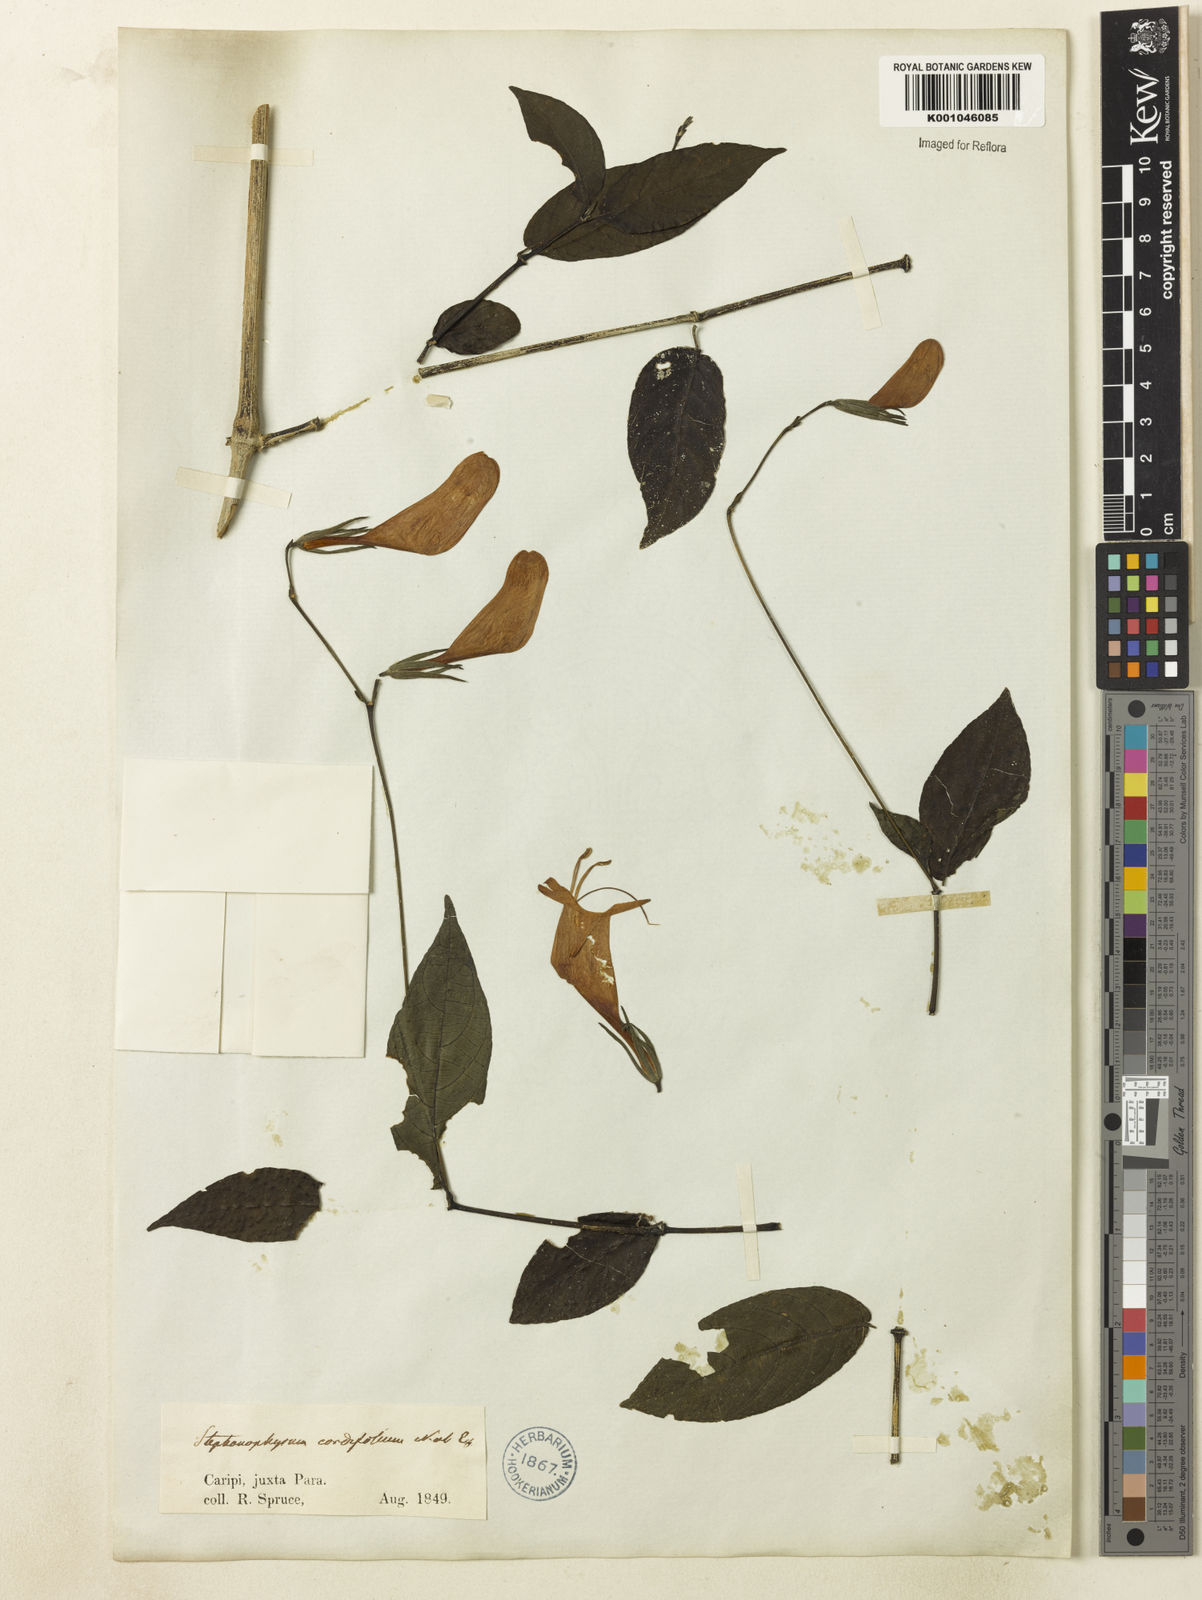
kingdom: Plantae
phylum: Tracheophyta
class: Magnoliopsida
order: Lamiales
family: Acanthaceae
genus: Ruellia
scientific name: Ruellia inflata
